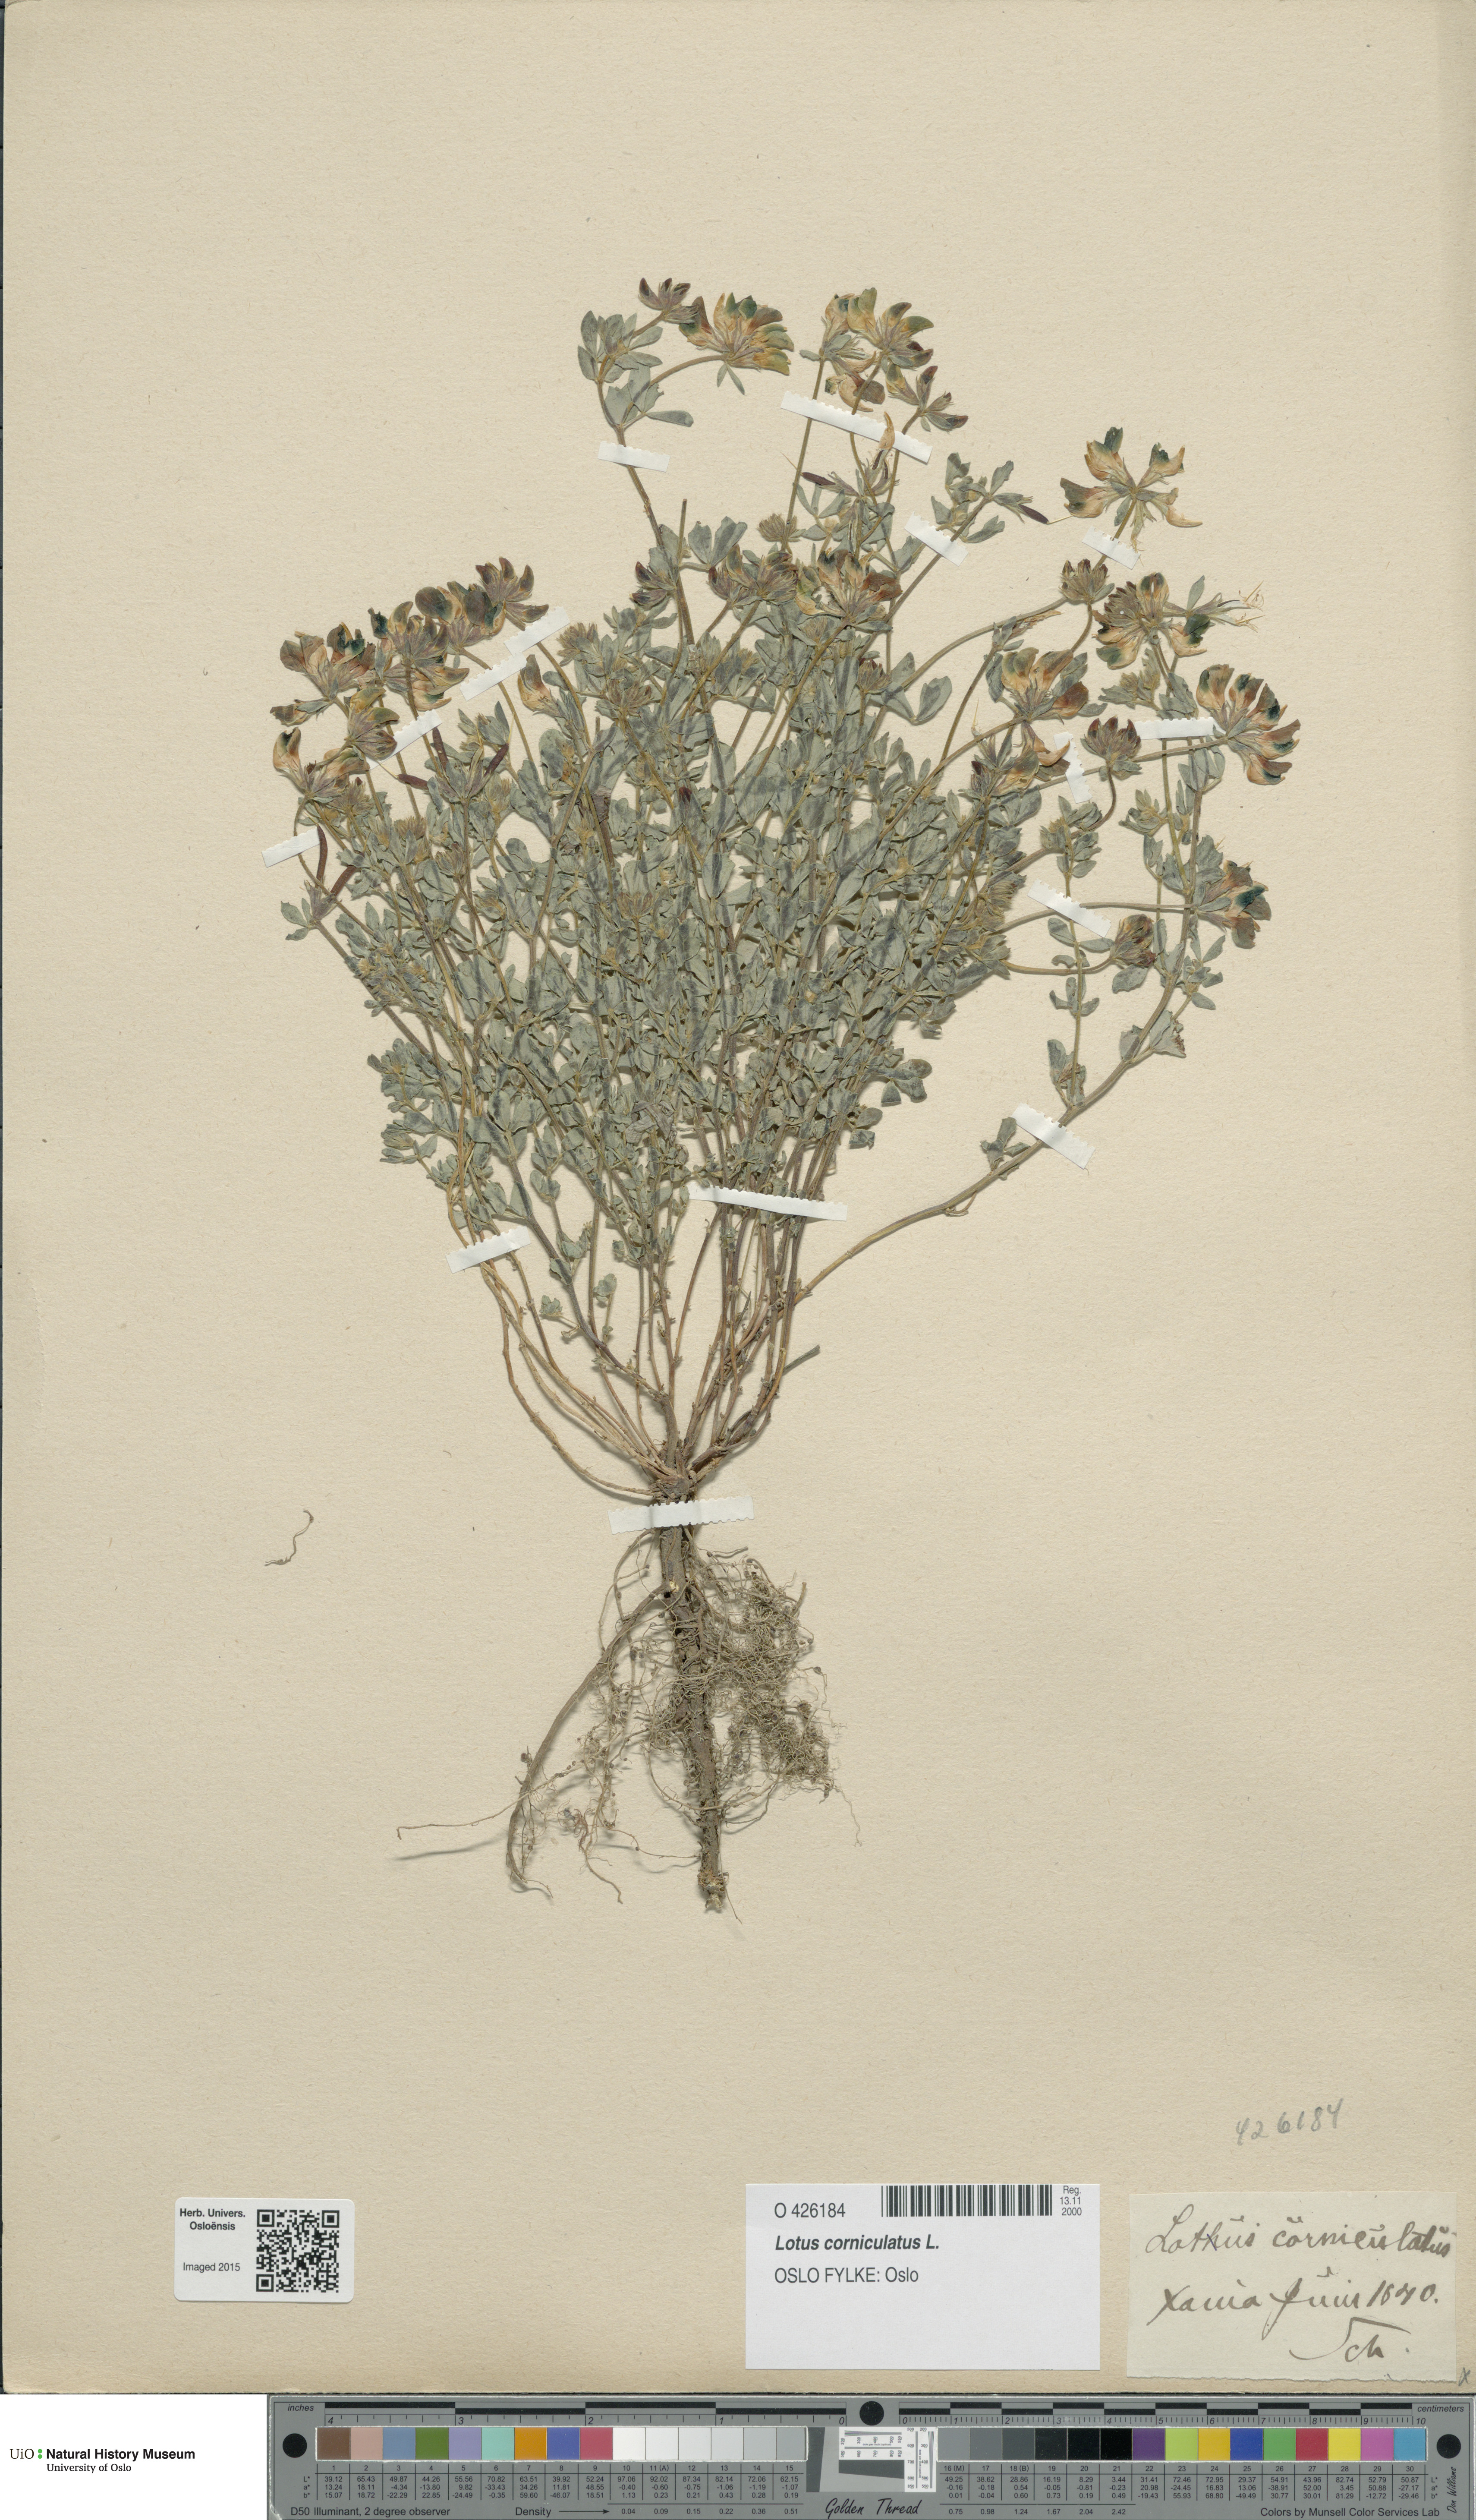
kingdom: Plantae
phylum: Tracheophyta
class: Magnoliopsida
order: Fabales
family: Fabaceae
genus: Lotus
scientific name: Lotus corniculatus
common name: Common bird's-foot-trefoil
